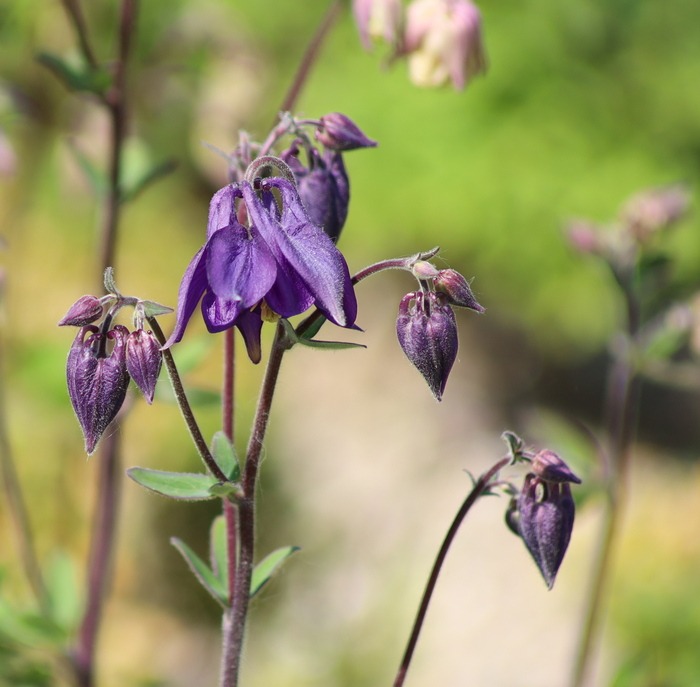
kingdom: Plantae
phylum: Tracheophyta
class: Magnoliopsida
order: Ranunculales
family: Ranunculaceae
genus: Aquilegia
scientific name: Aquilegia vulgaris
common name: Akeleje
